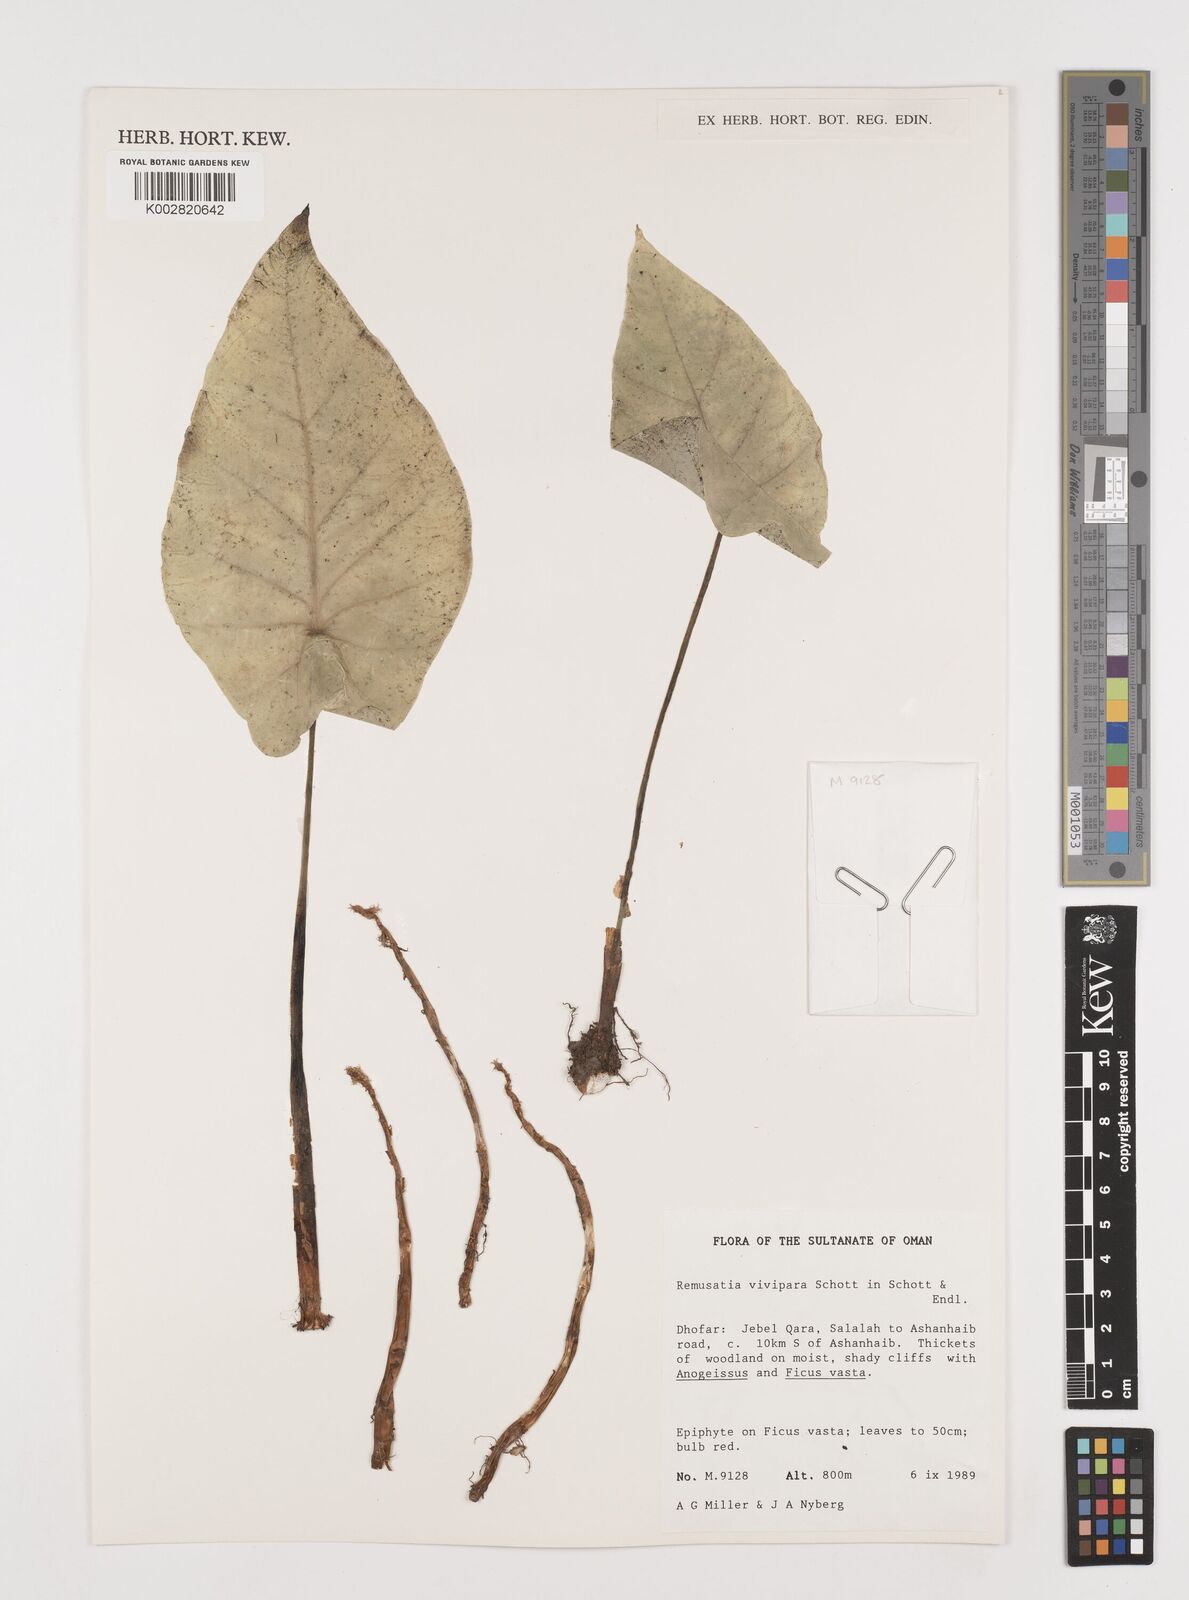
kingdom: Plantae
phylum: Tracheophyta
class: Liliopsida
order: Alismatales
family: Araceae
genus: Remusatia
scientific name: Remusatia vivipara
